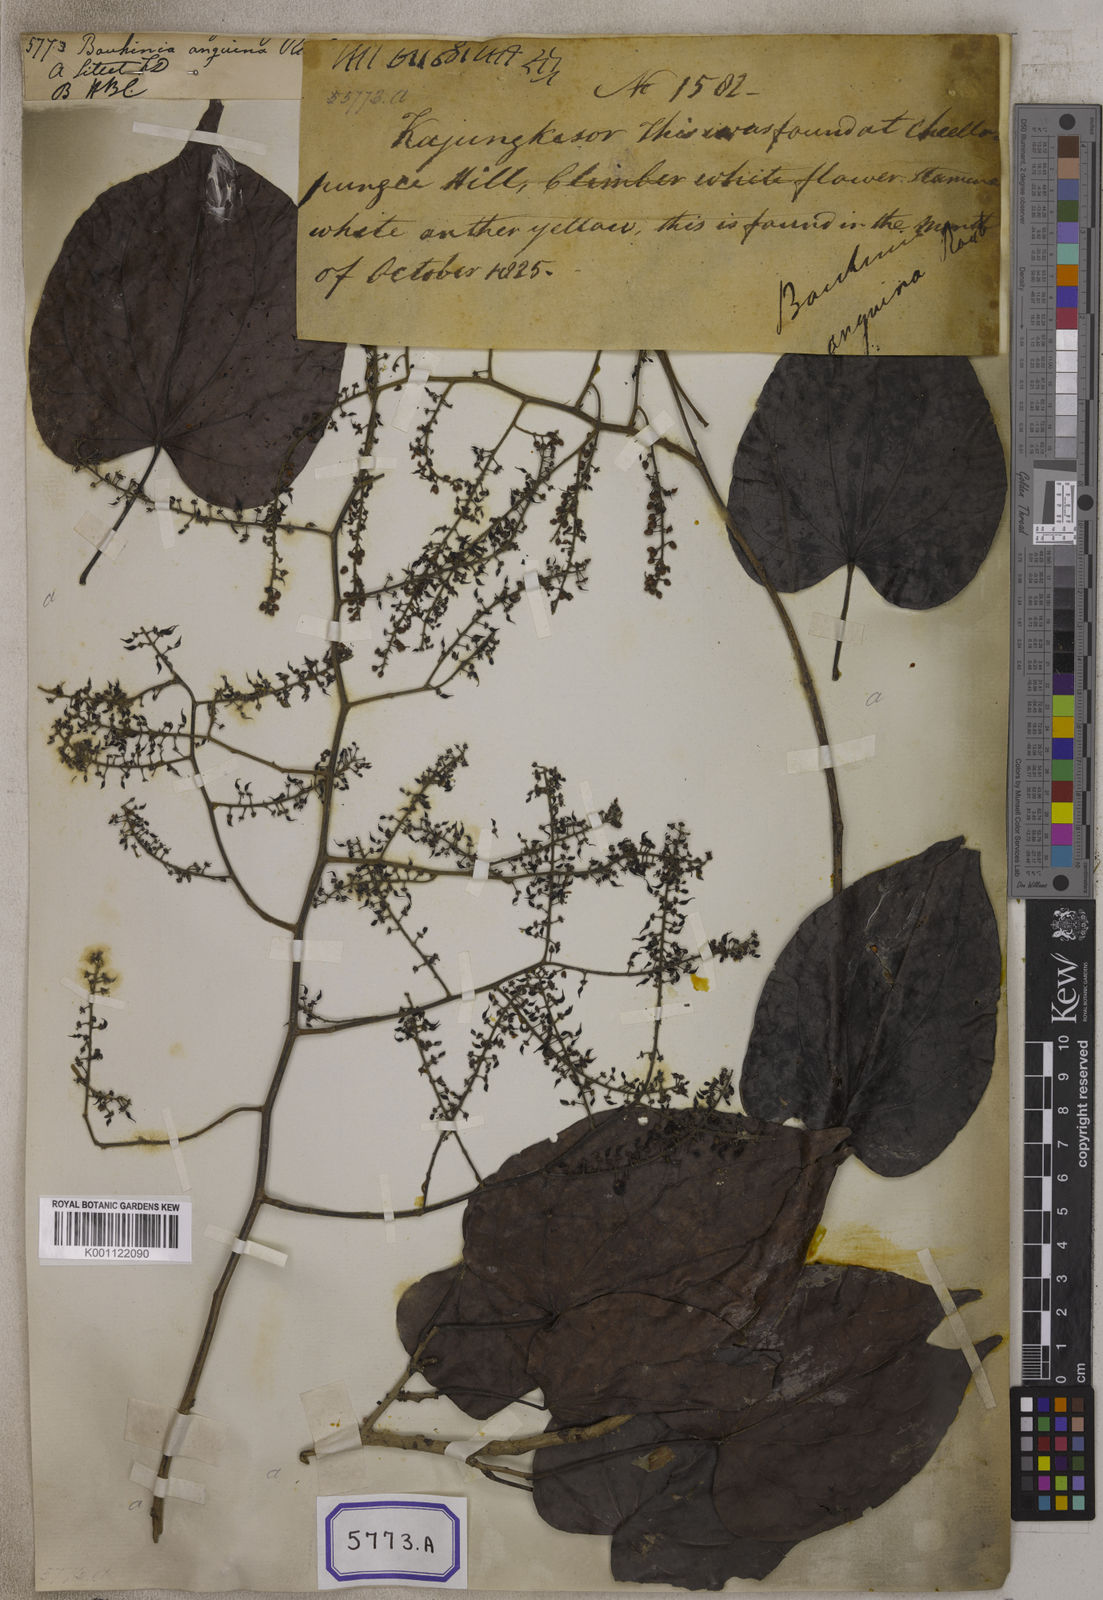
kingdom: Plantae
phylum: Tracheophyta
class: Magnoliopsida
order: Fabales
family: Fabaceae
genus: Phanera
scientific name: Phanera scandens
